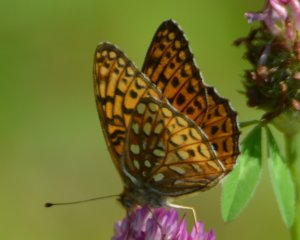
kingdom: Animalia
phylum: Arthropoda
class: Insecta
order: Lepidoptera
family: Nymphalidae
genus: Speyeria
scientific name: Speyeria atlantis
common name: Atlantis Fritillary
